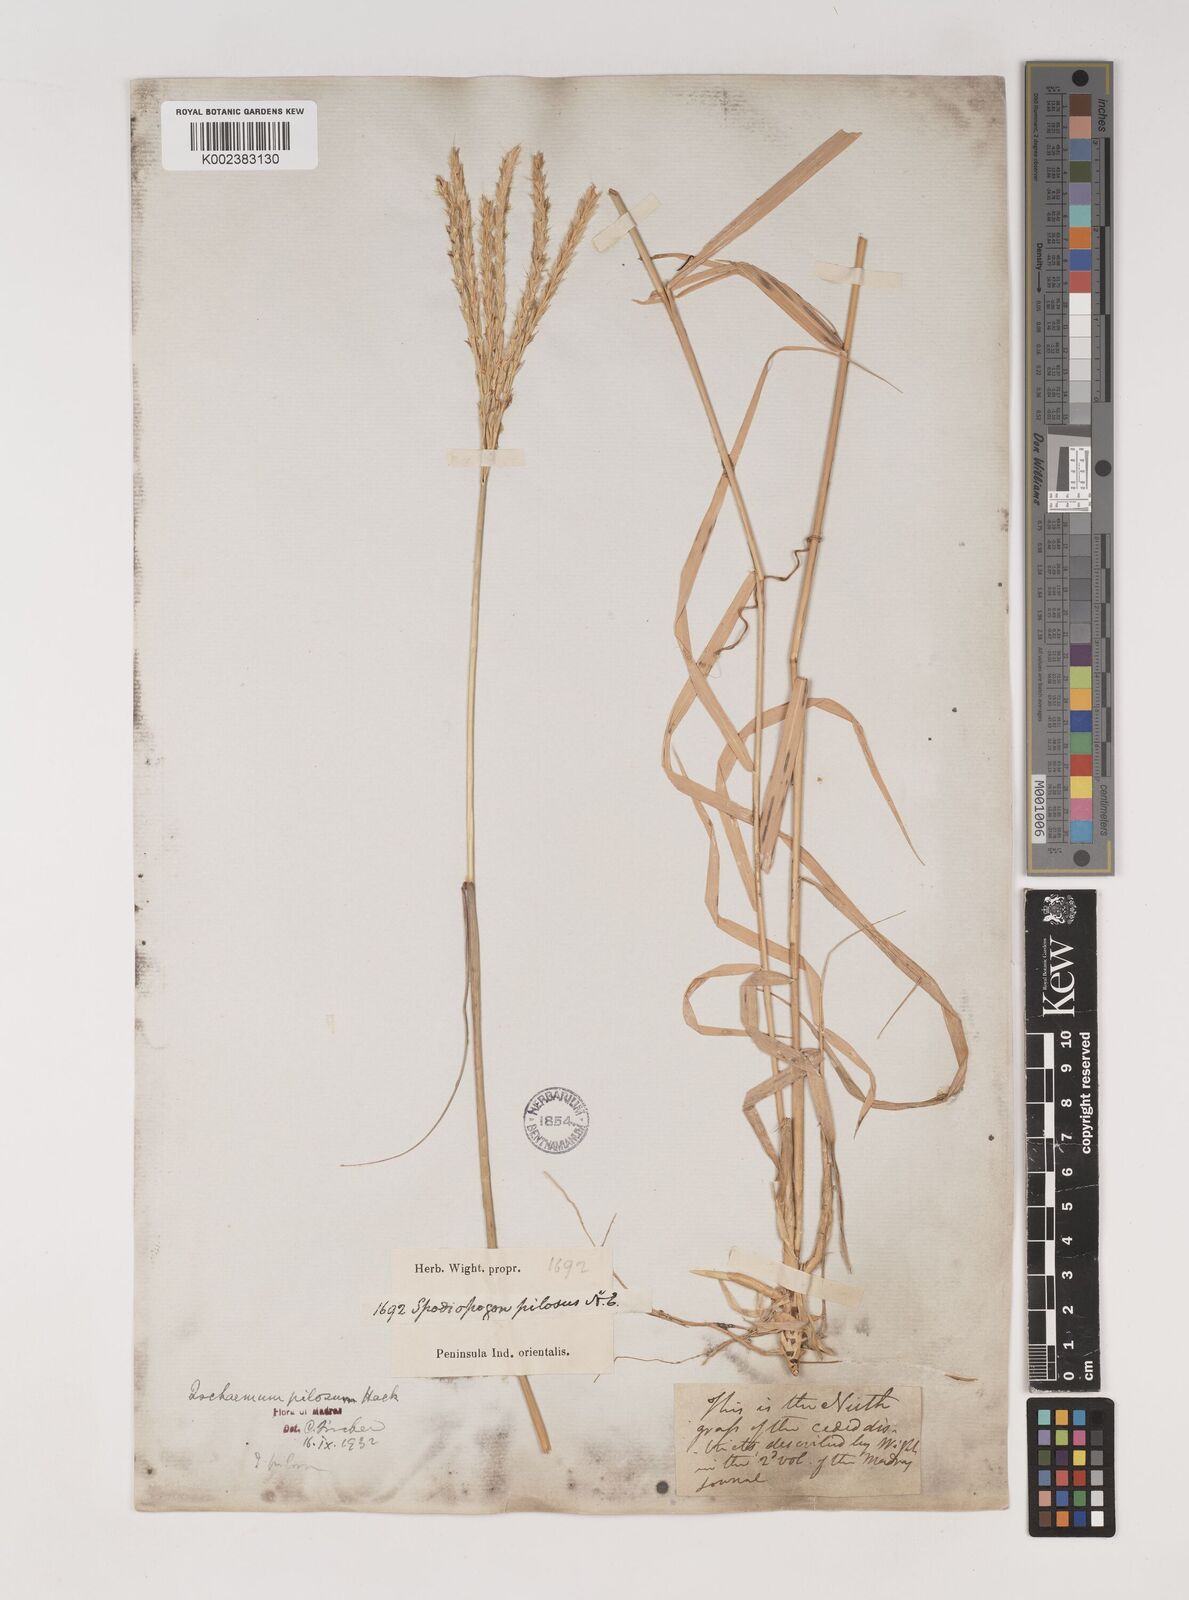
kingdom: Plantae
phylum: Tracheophyta
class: Liliopsida
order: Poales
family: Poaceae
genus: Ischaemum
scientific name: Ischaemum afrum
